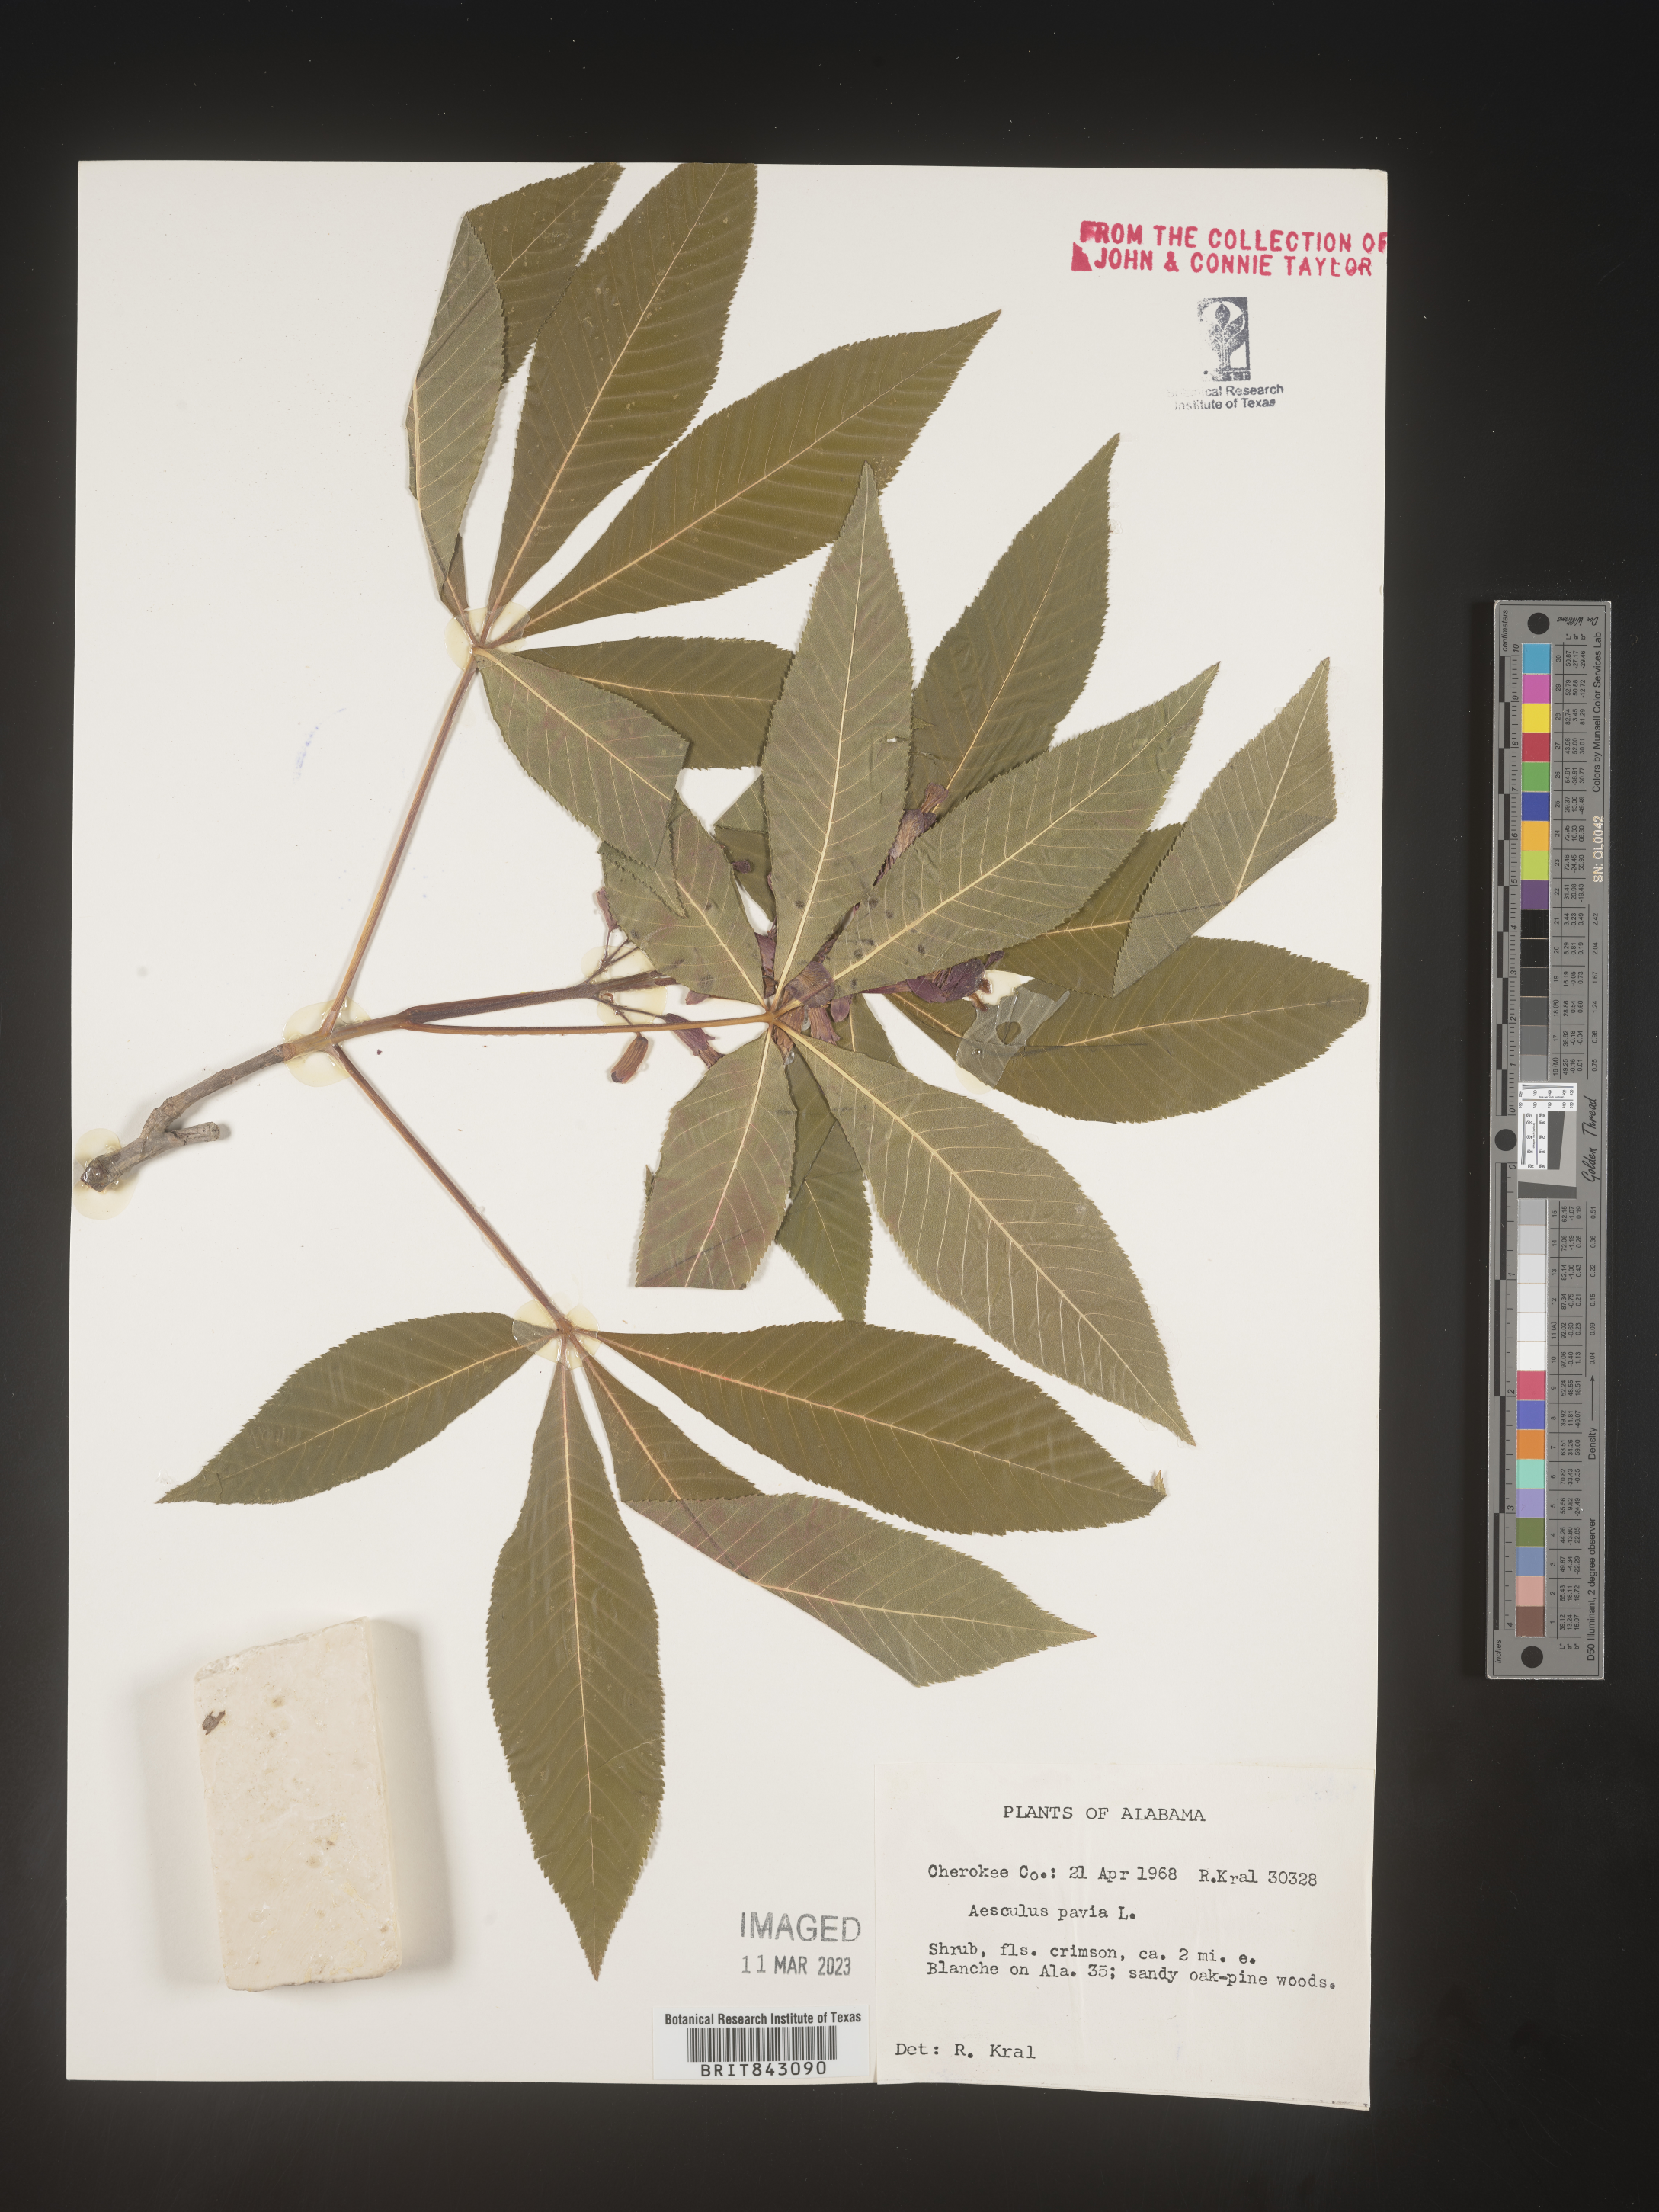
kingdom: Plantae
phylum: Tracheophyta
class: Magnoliopsida
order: Sapindales
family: Sapindaceae
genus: Aesculus
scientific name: Aesculus pavia
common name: Red buckeye
